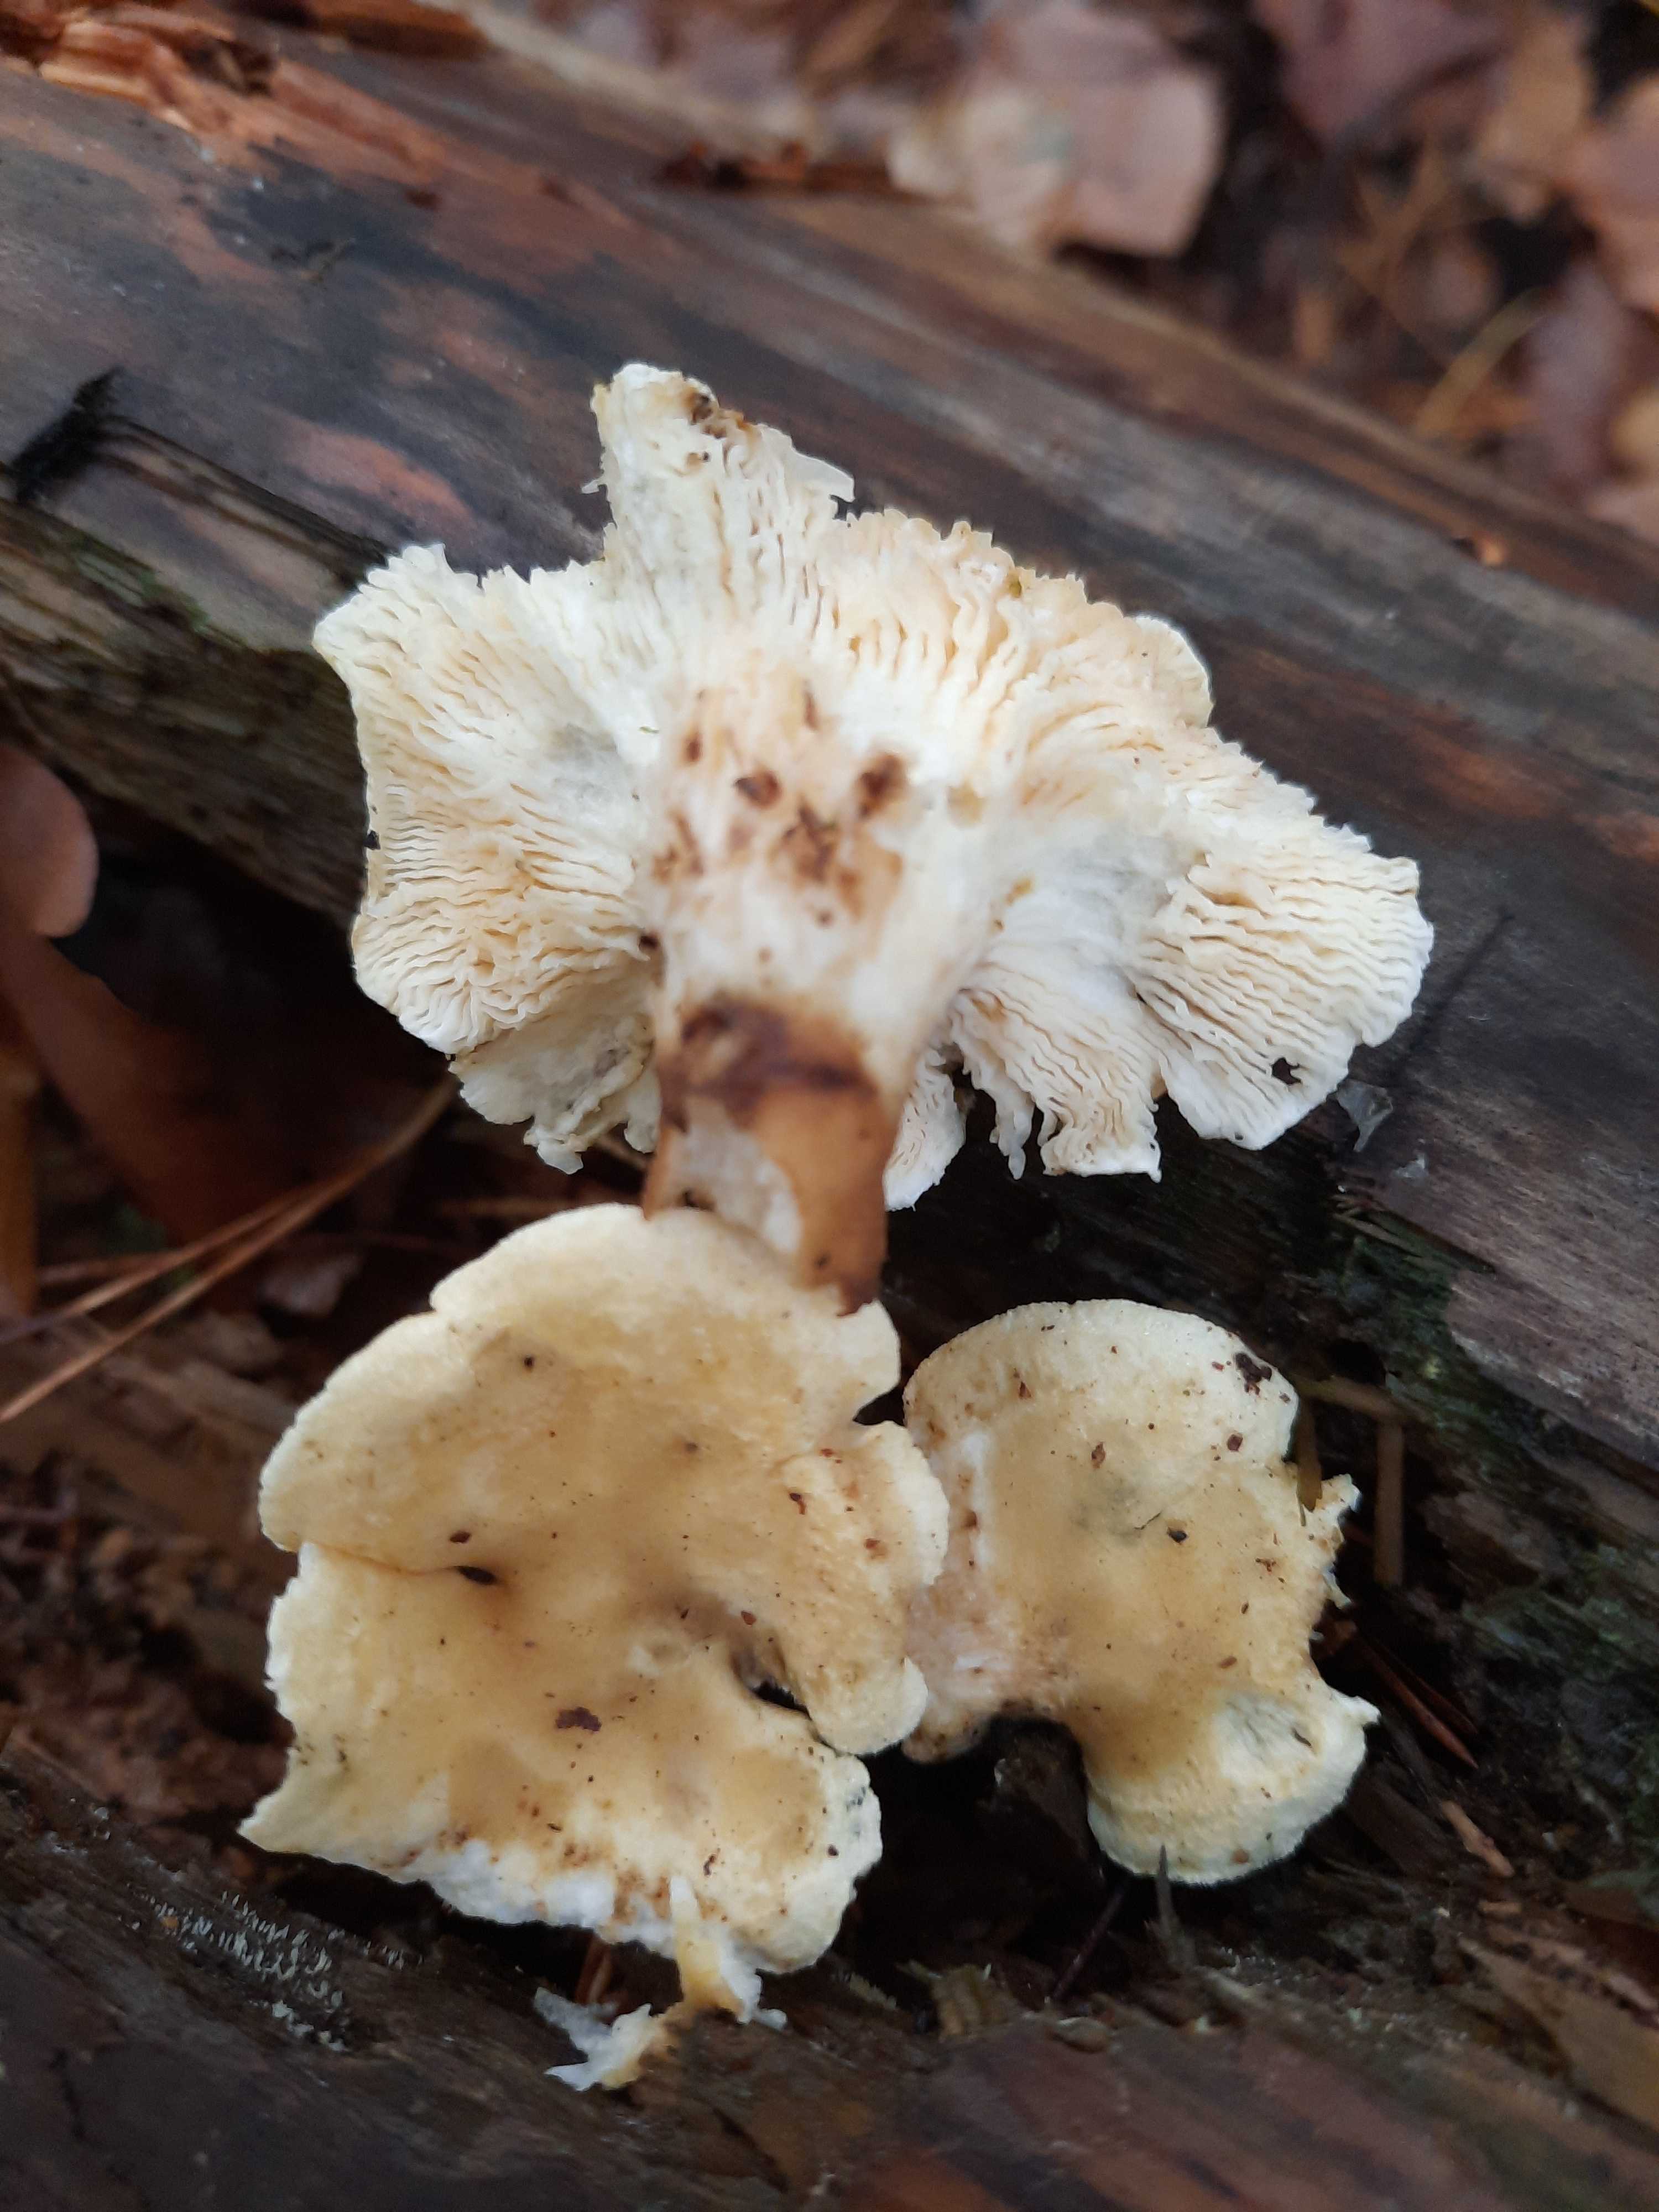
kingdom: Fungi
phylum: Basidiomycota
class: Agaricomycetes
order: Boletales
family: Hygrophoropsidaceae
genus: Hygrophoropsis
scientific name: Hygrophoropsis pallida
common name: bleg orangekantarel
